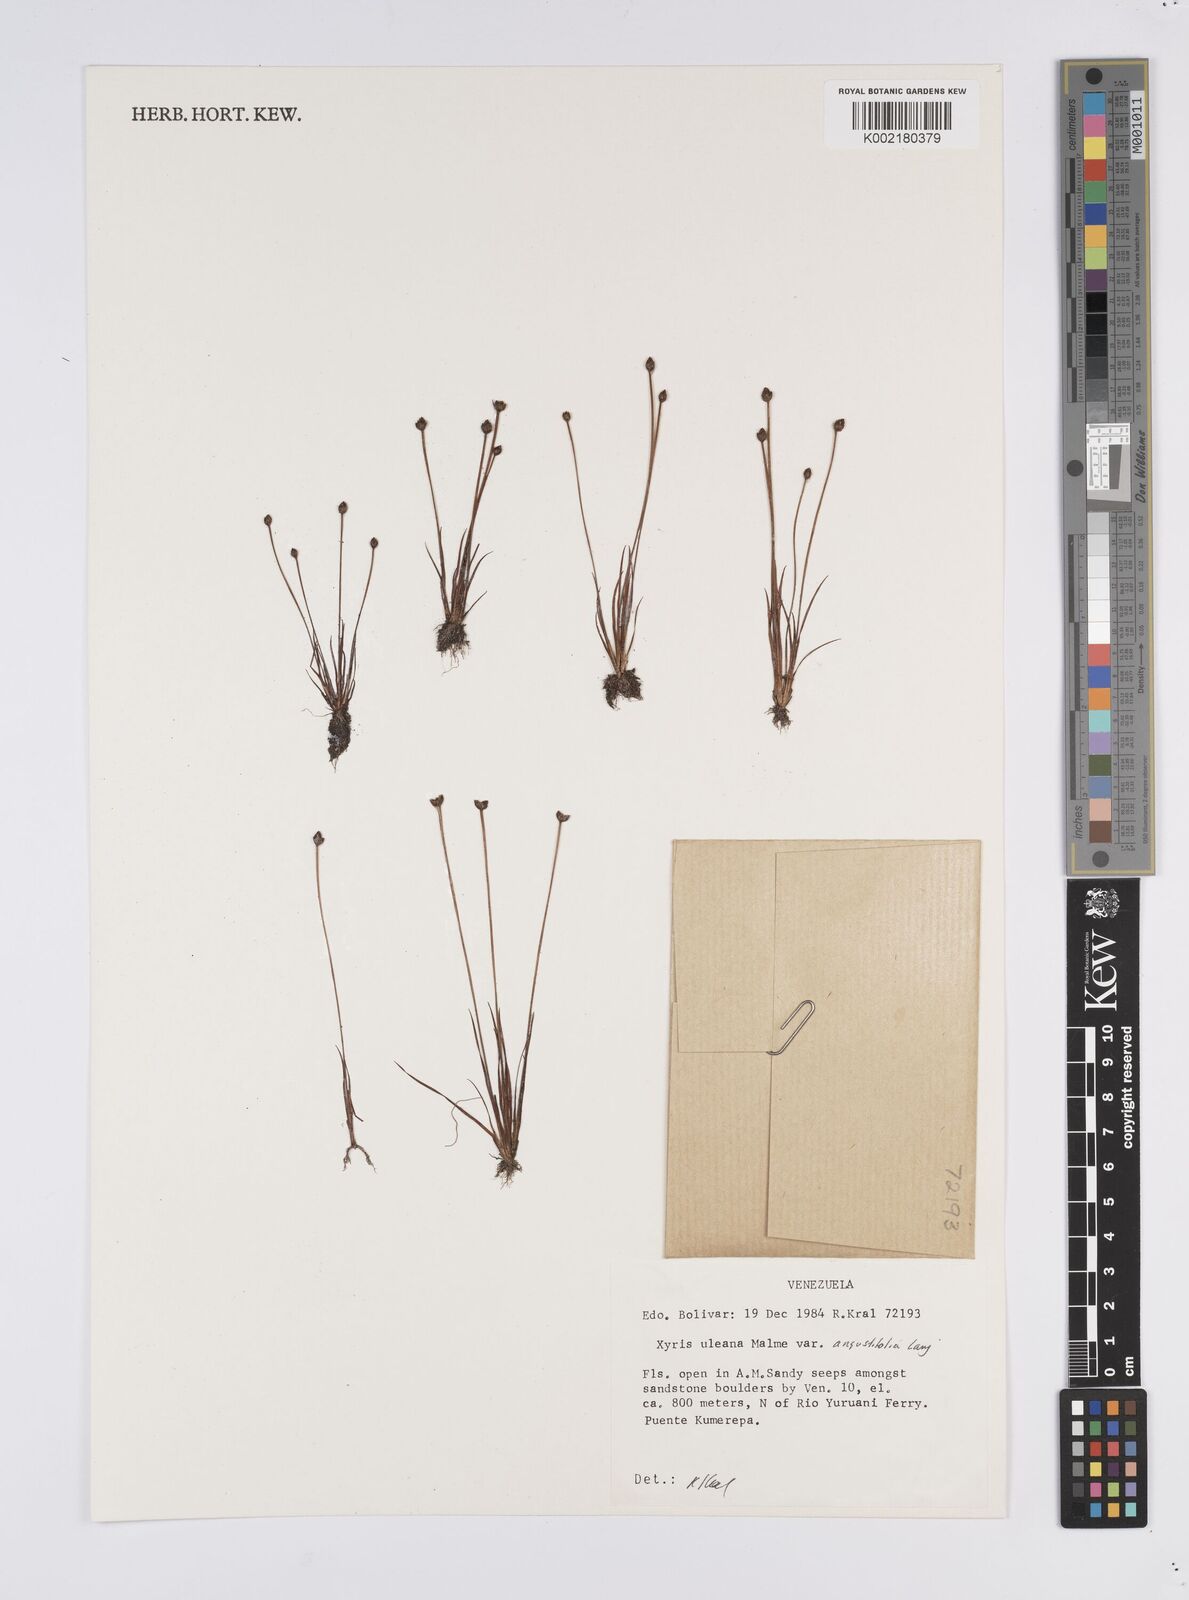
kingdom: Plantae
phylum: Tracheophyta
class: Liliopsida
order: Poales
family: Xyridaceae
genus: Xyris
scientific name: Xyris uleana
